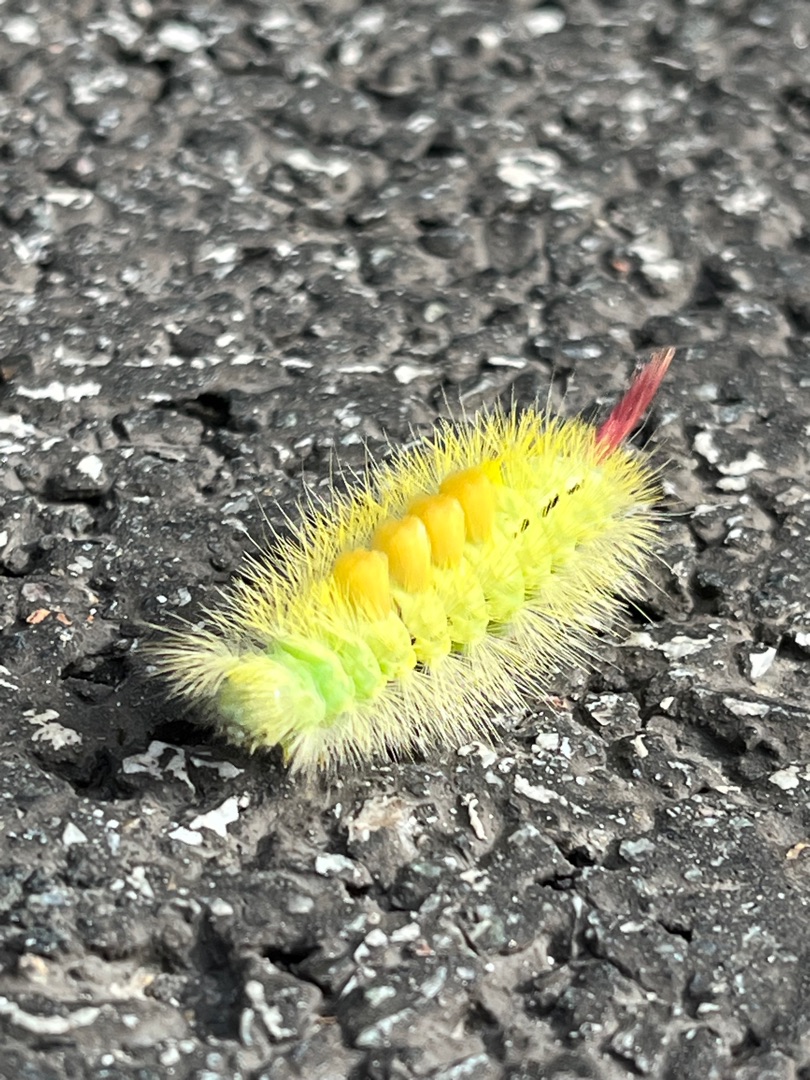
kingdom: Animalia
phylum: Arthropoda
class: Insecta
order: Lepidoptera
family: Erebidae
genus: Calliteara
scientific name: Calliteara pudibunda
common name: Bøgenonne
